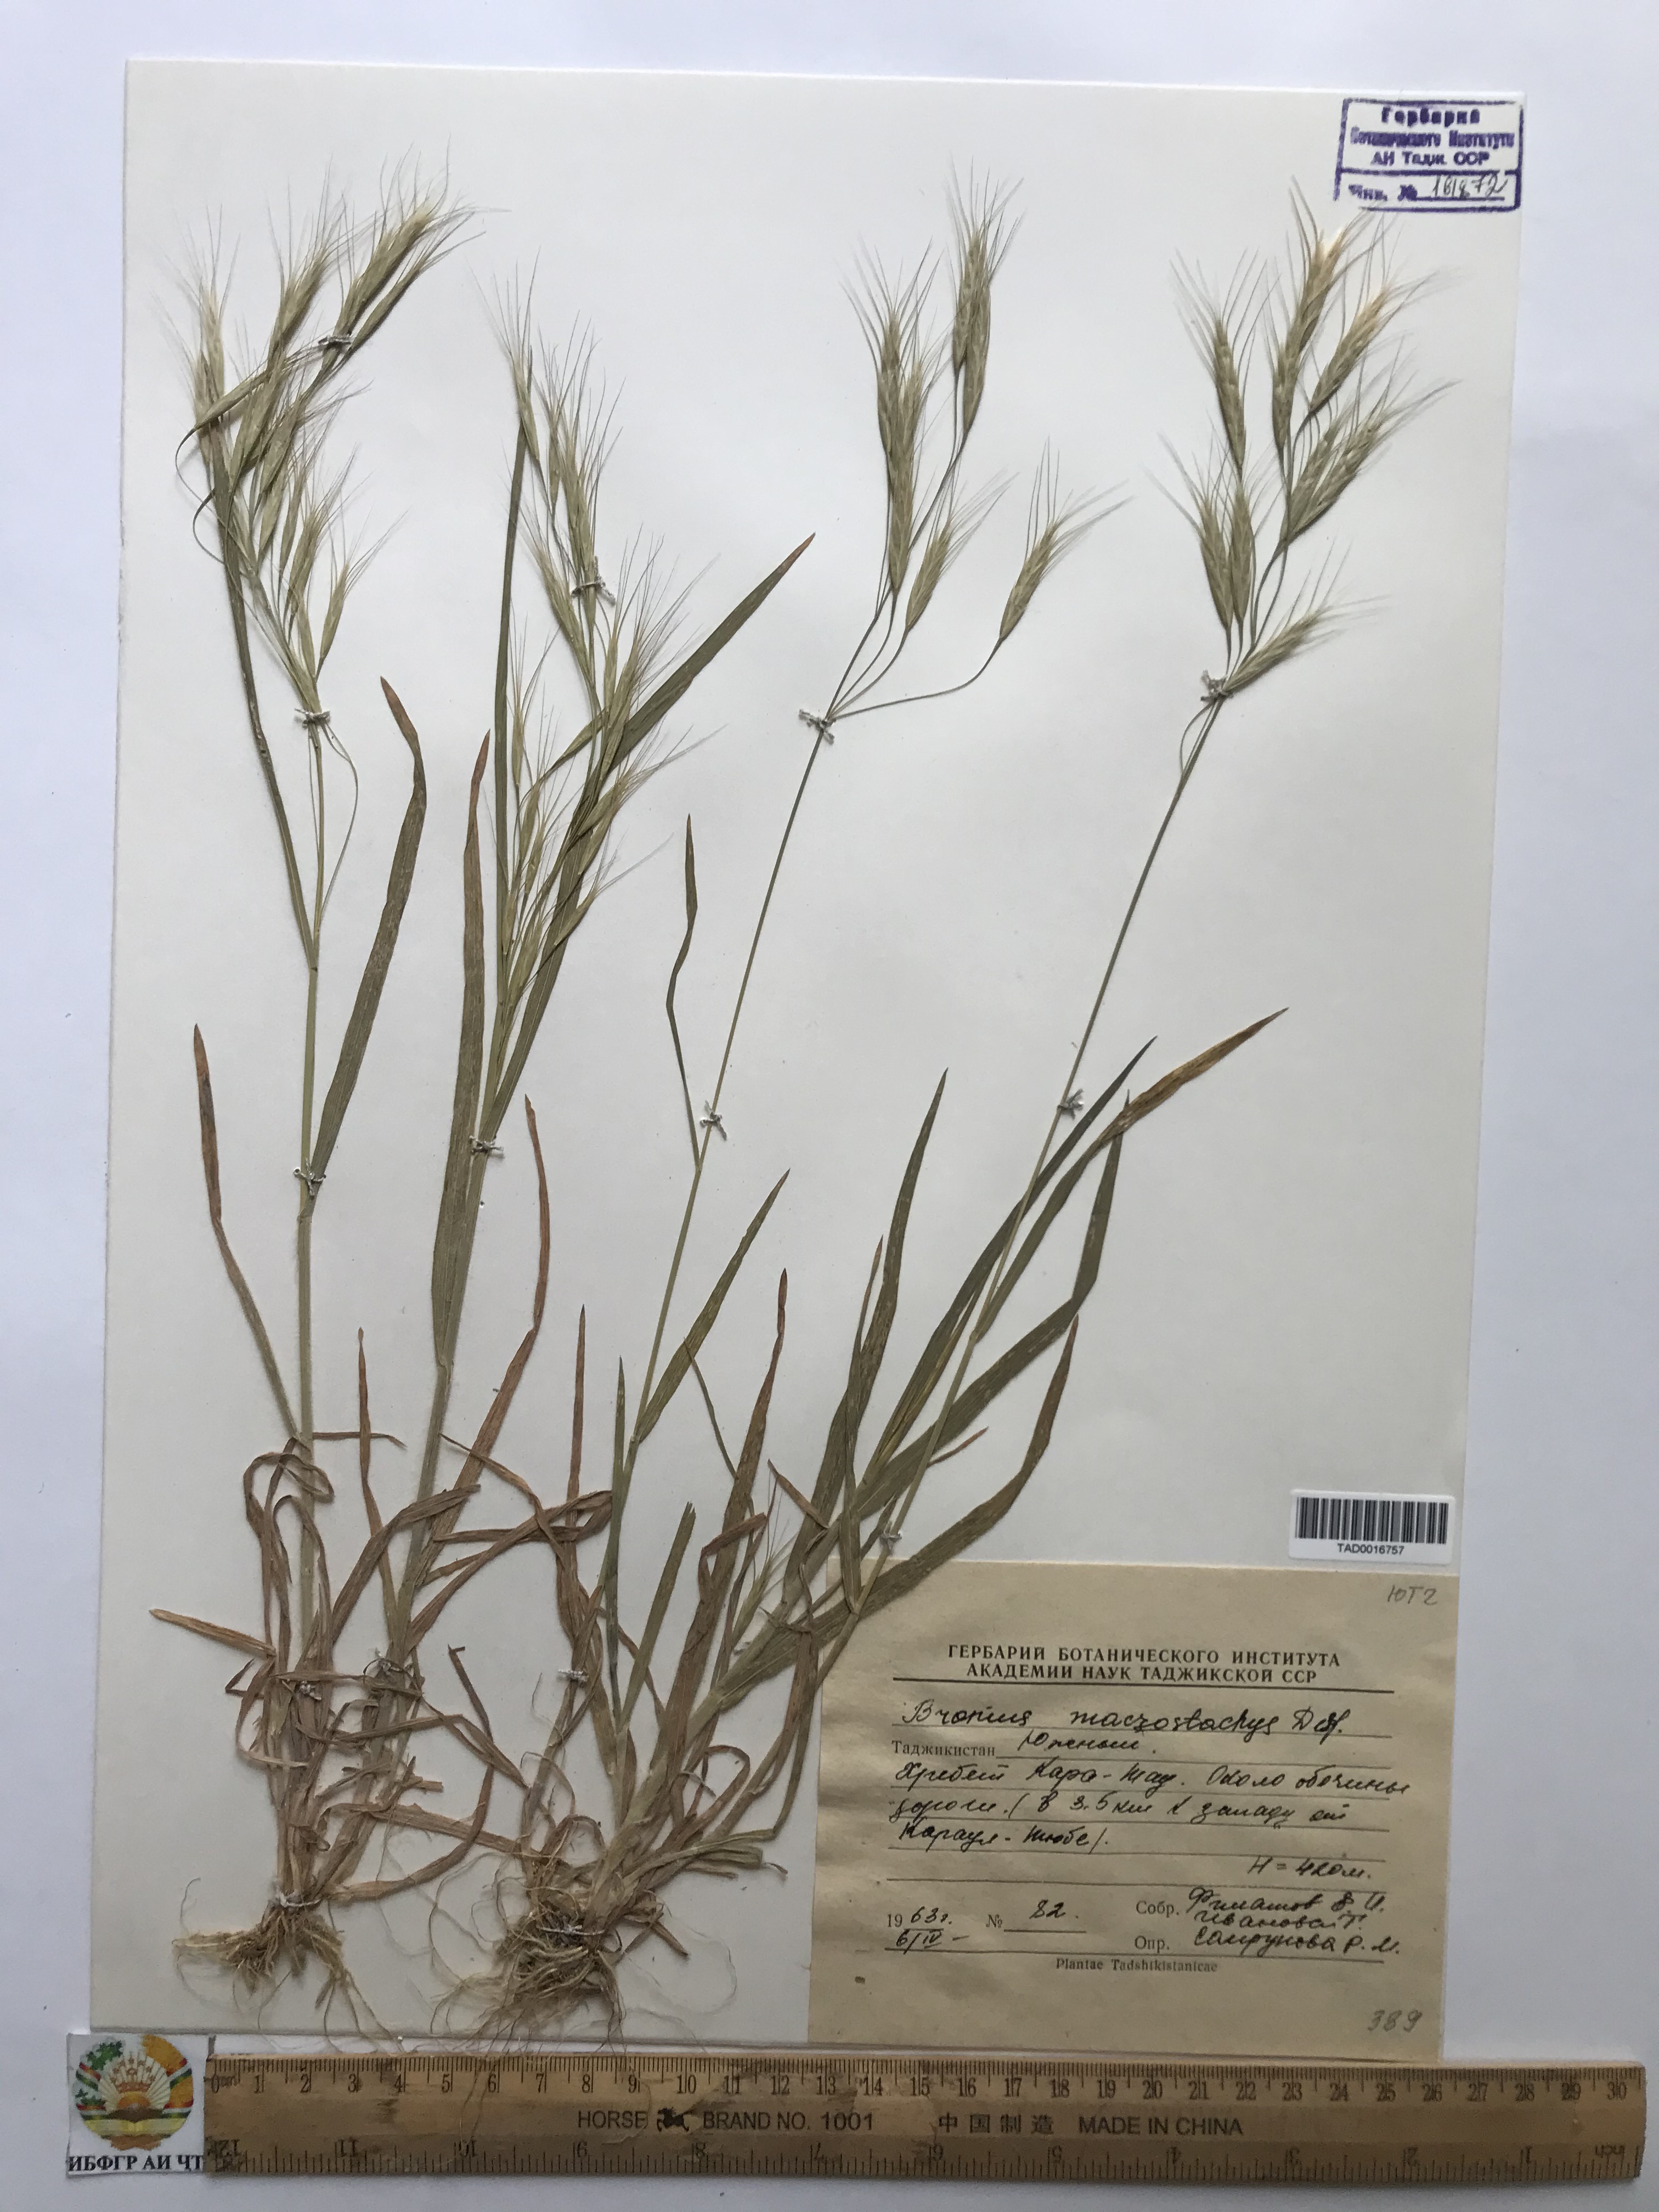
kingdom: Plantae
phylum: Tracheophyta
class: Liliopsida
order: Poales
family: Poaceae
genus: Bromus
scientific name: Bromus lanceolatus
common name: Mediterranean brome
